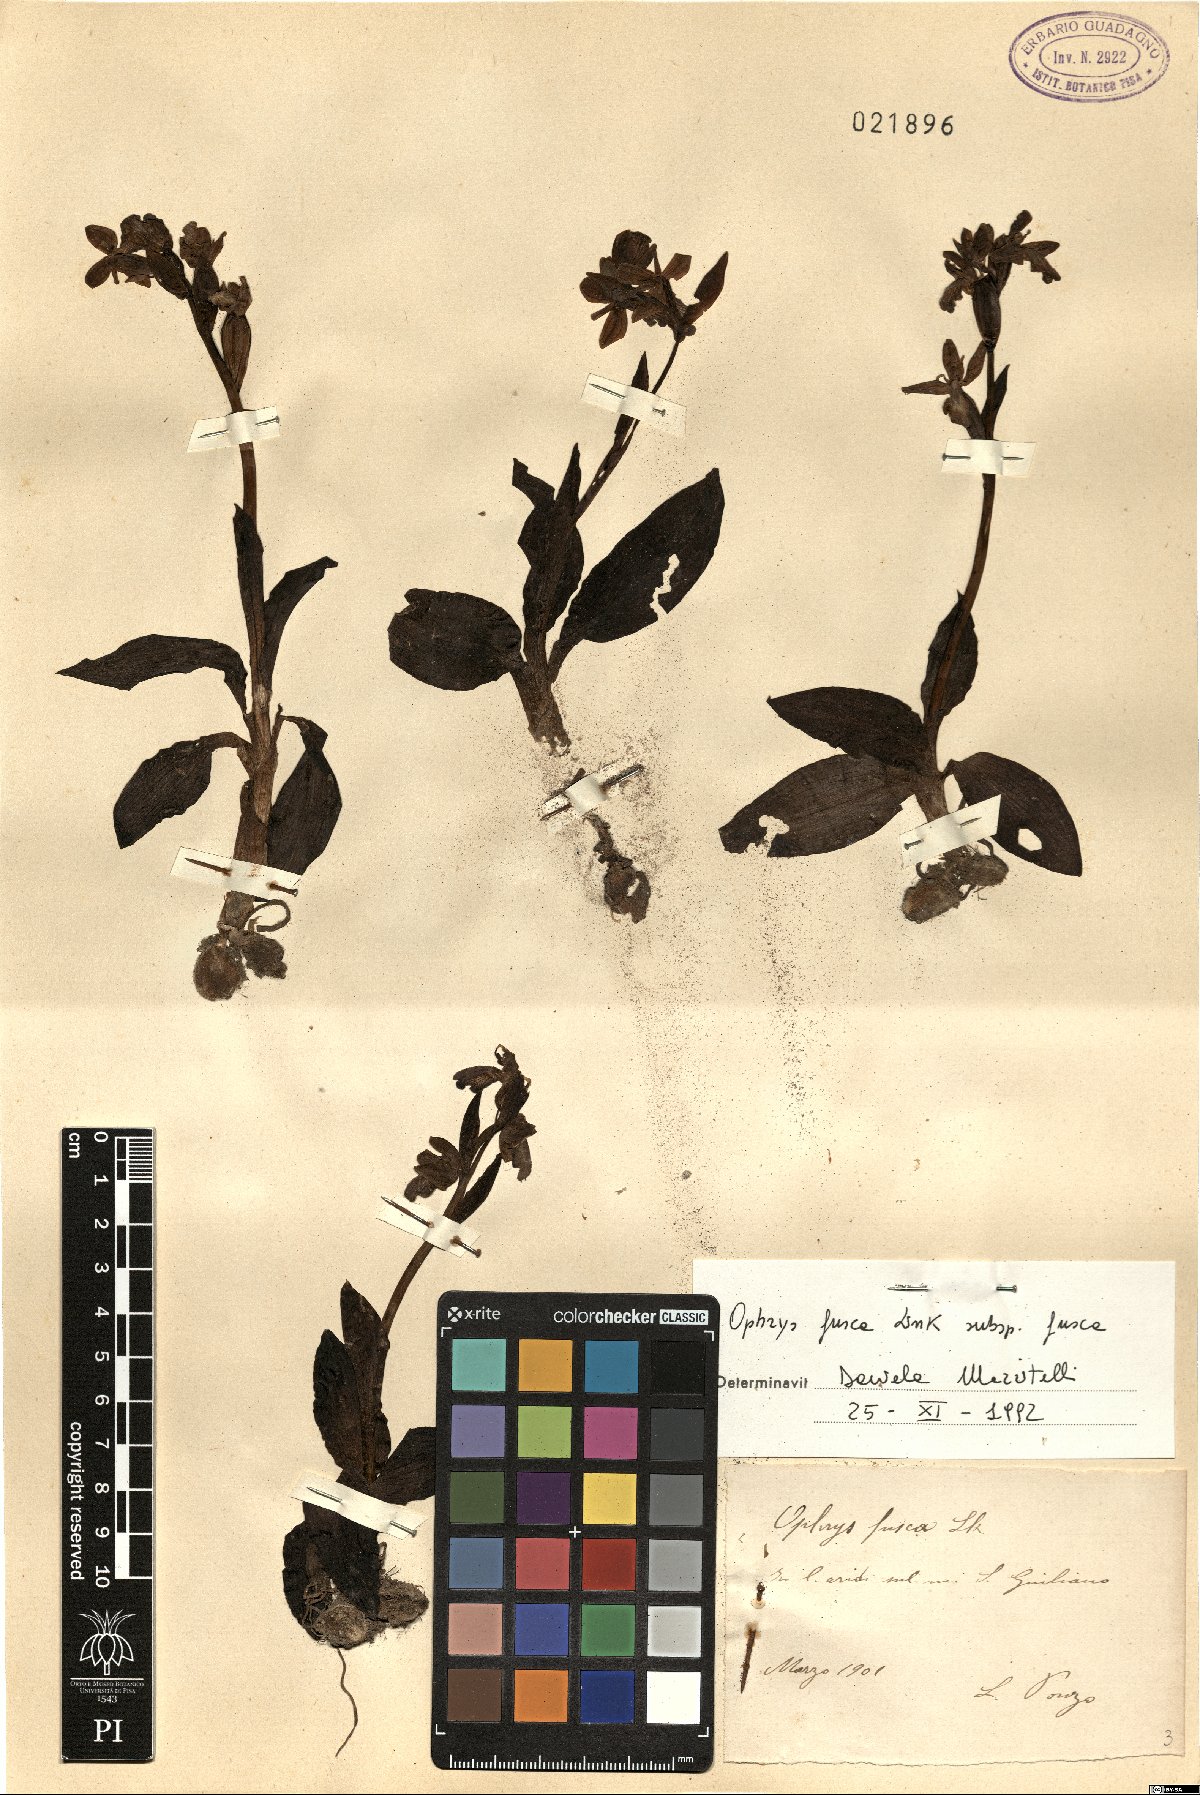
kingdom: Plantae
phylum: Tracheophyta
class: Liliopsida
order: Asparagales
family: Orchidaceae
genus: Ophrys
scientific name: Ophrys fusca
